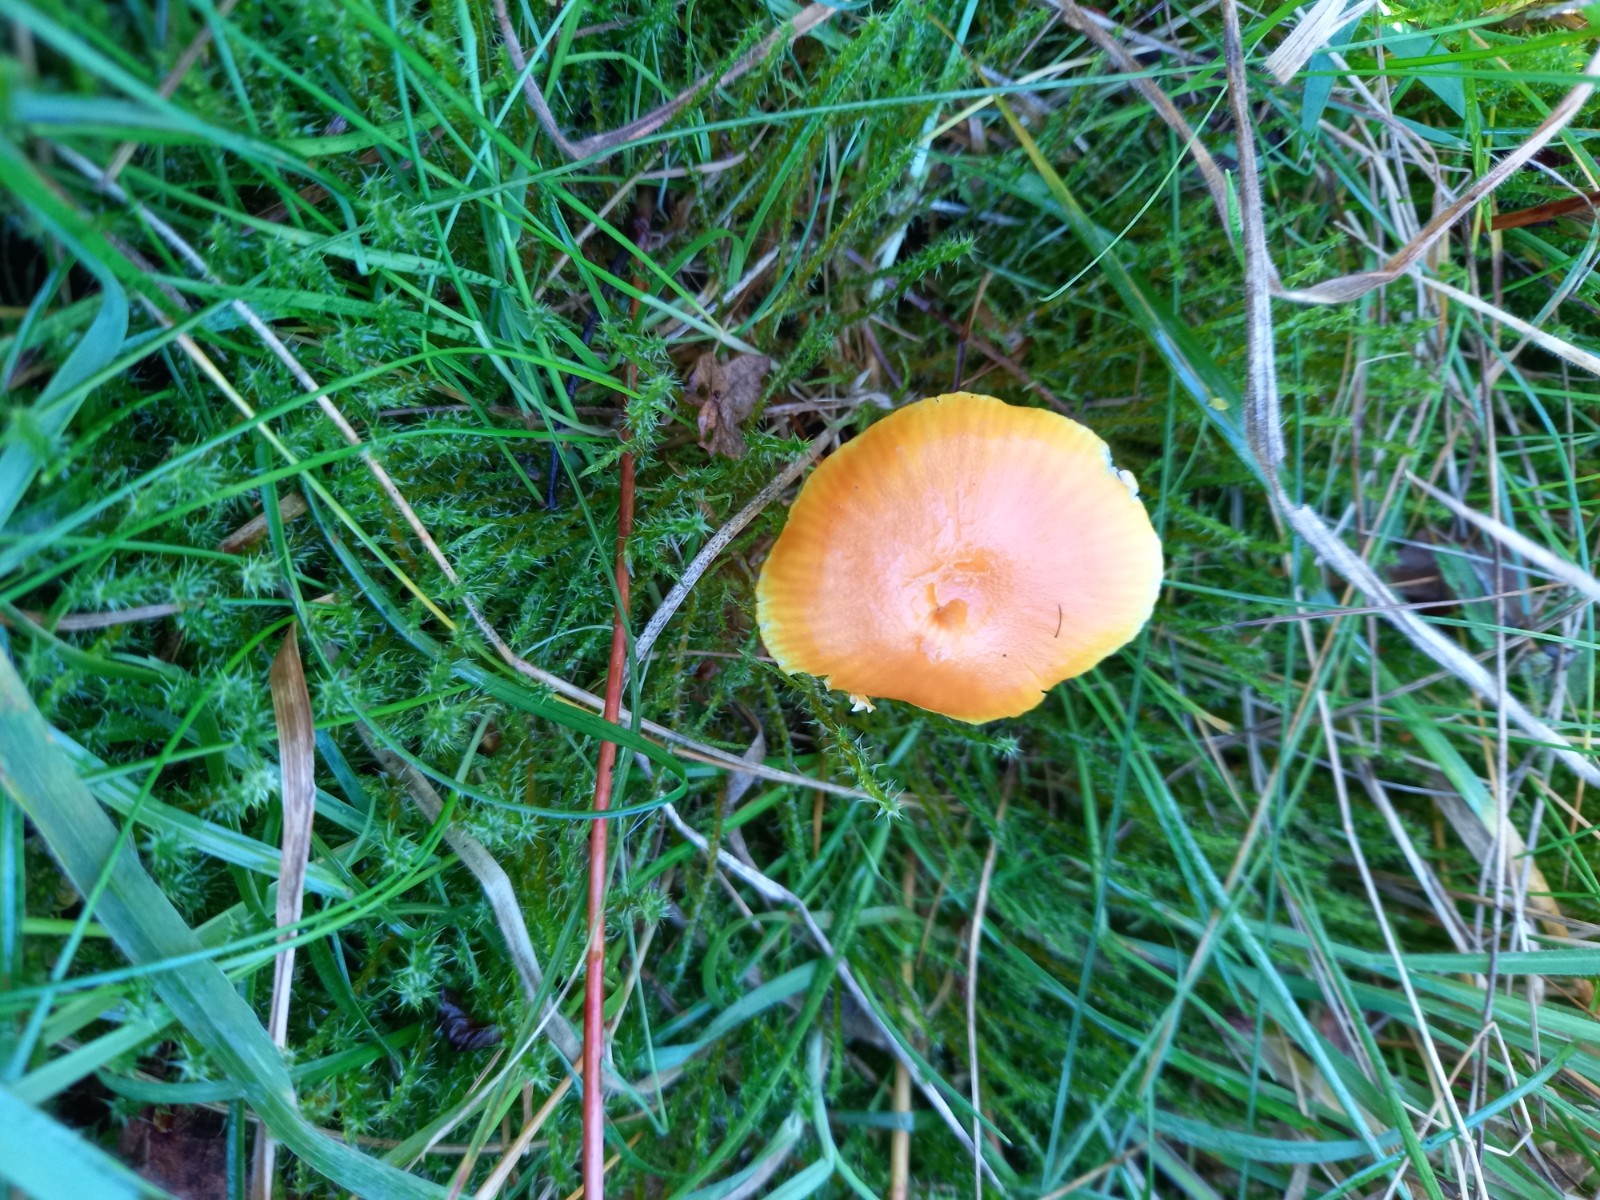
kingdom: Fungi
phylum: Basidiomycota
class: Agaricomycetes
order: Agaricales
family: Hygrophoraceae
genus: Hygrocybe
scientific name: Hygrocybe miniata
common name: mønje-vokshat
